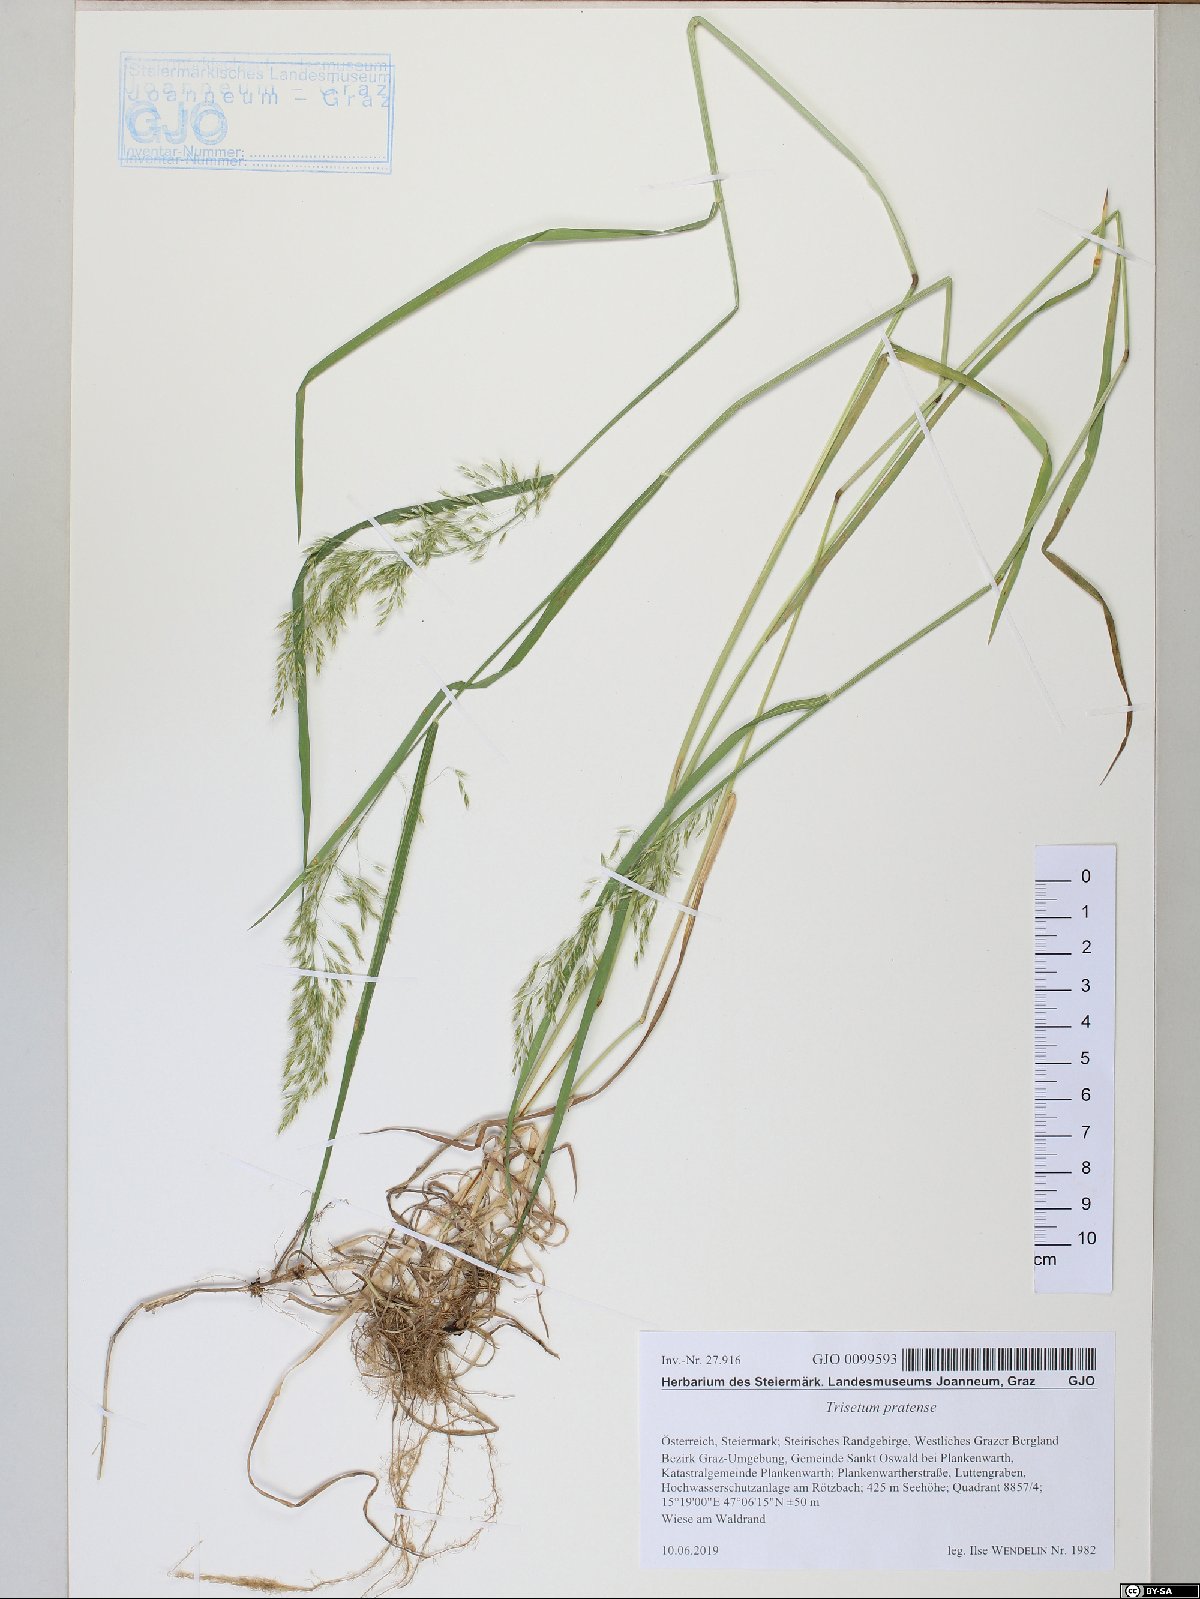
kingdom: Plantae
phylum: Tracheophyta
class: Liliopsida
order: Poales
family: Poaceae
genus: Trisetum
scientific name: Trisetum flavescens
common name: Yellow oat-grass
